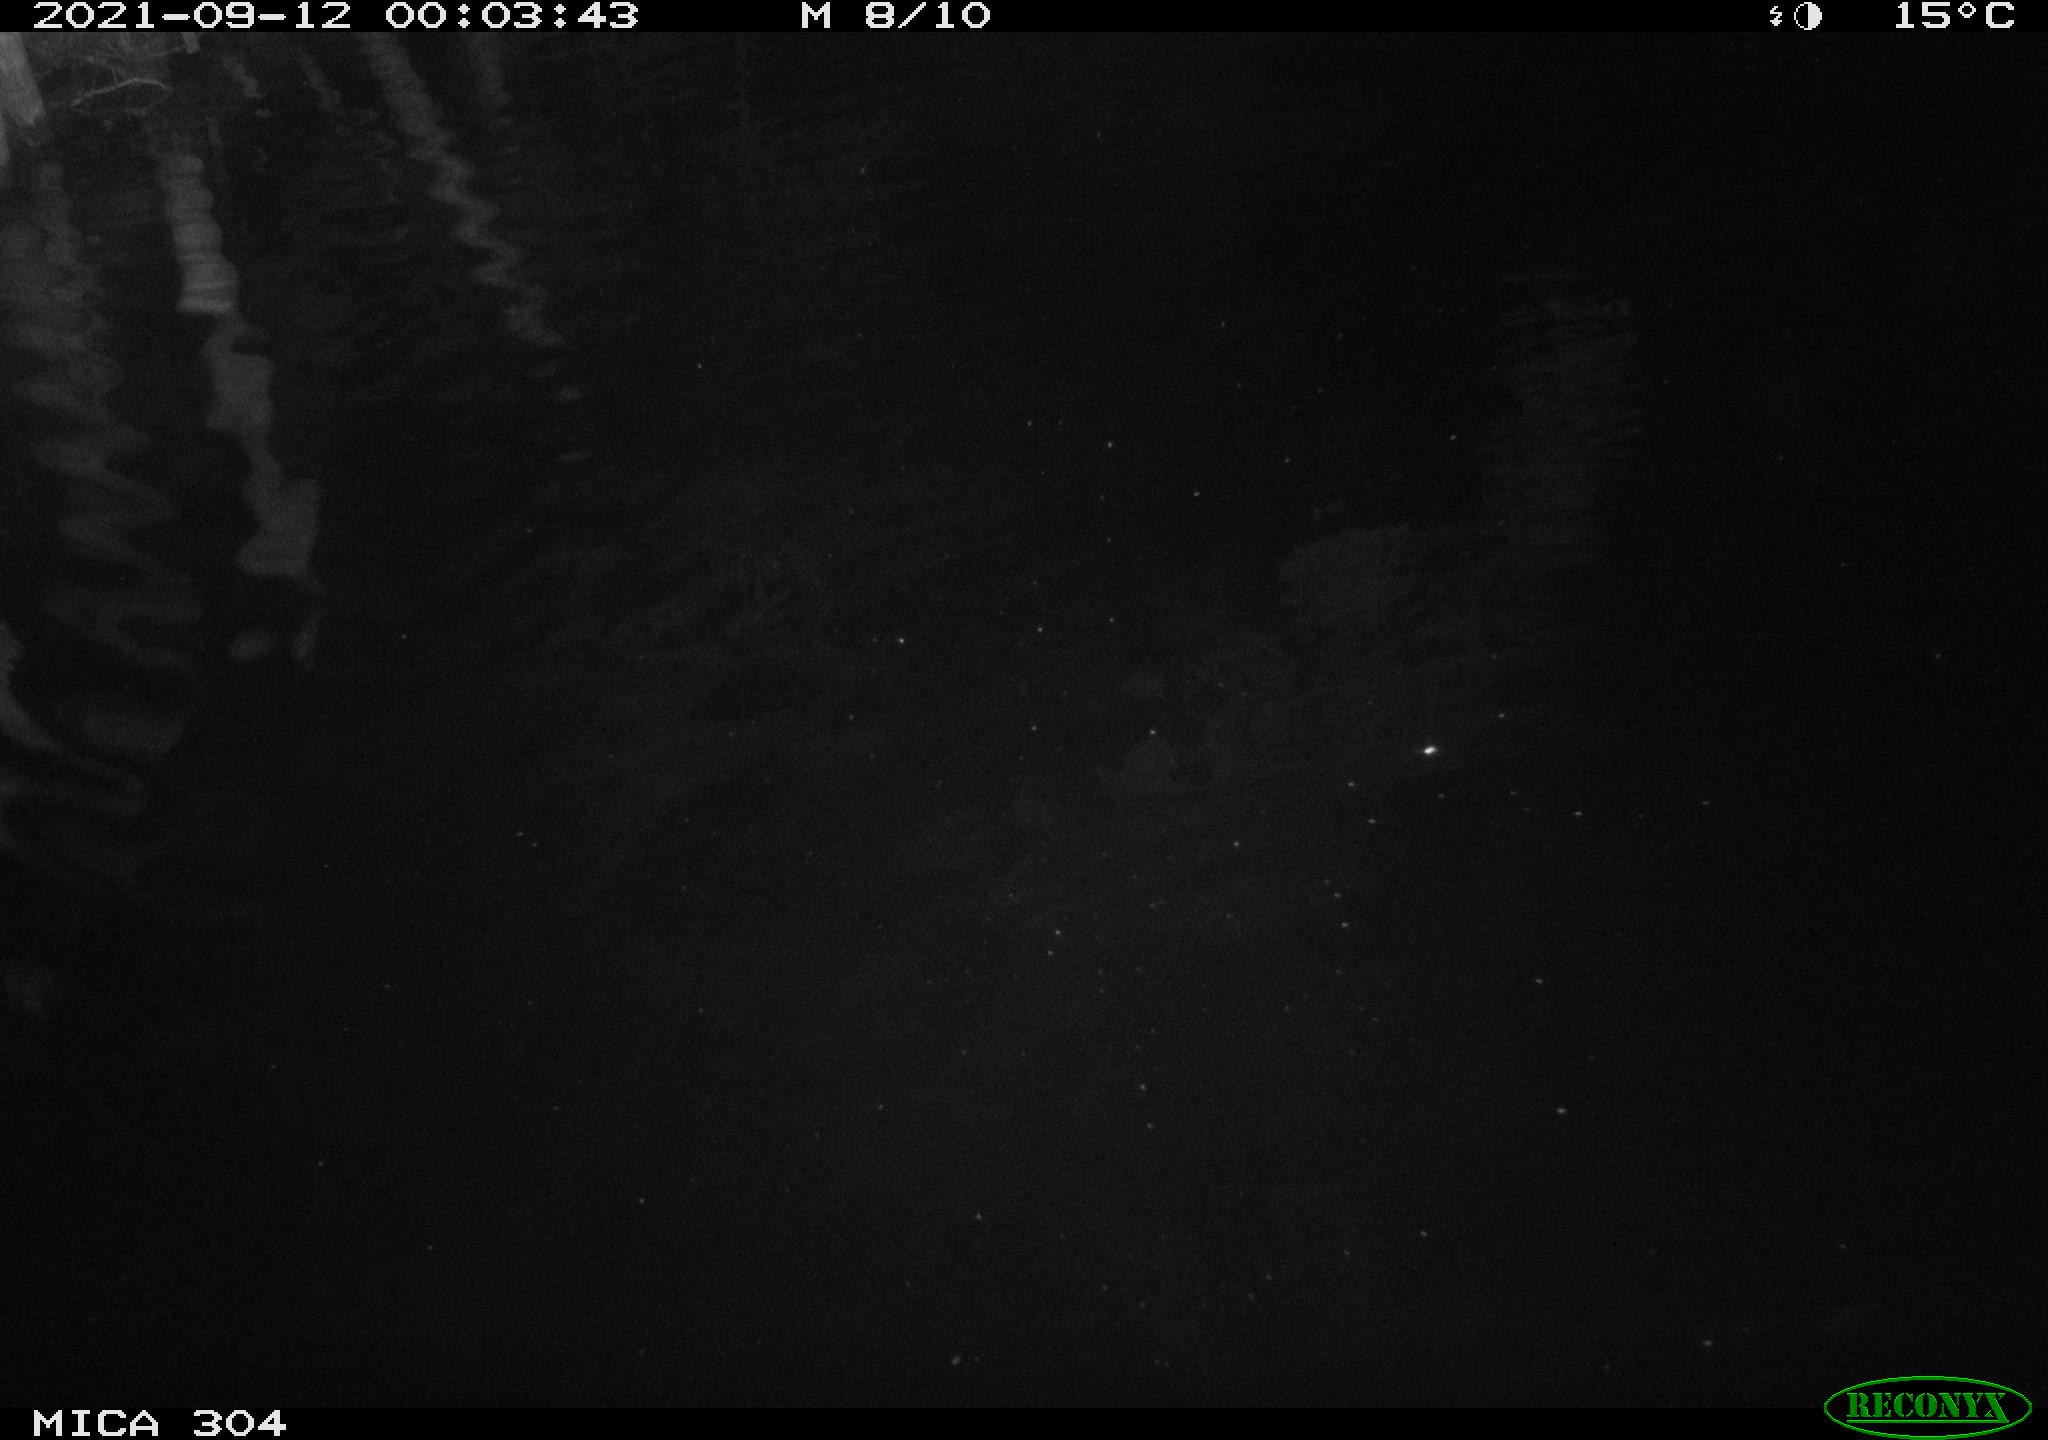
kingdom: Animalia
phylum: Chordata
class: Mammalia
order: Rodentia
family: Cricetidae
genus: Ondatra
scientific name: Ondatra zibethicus
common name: Muskrat
